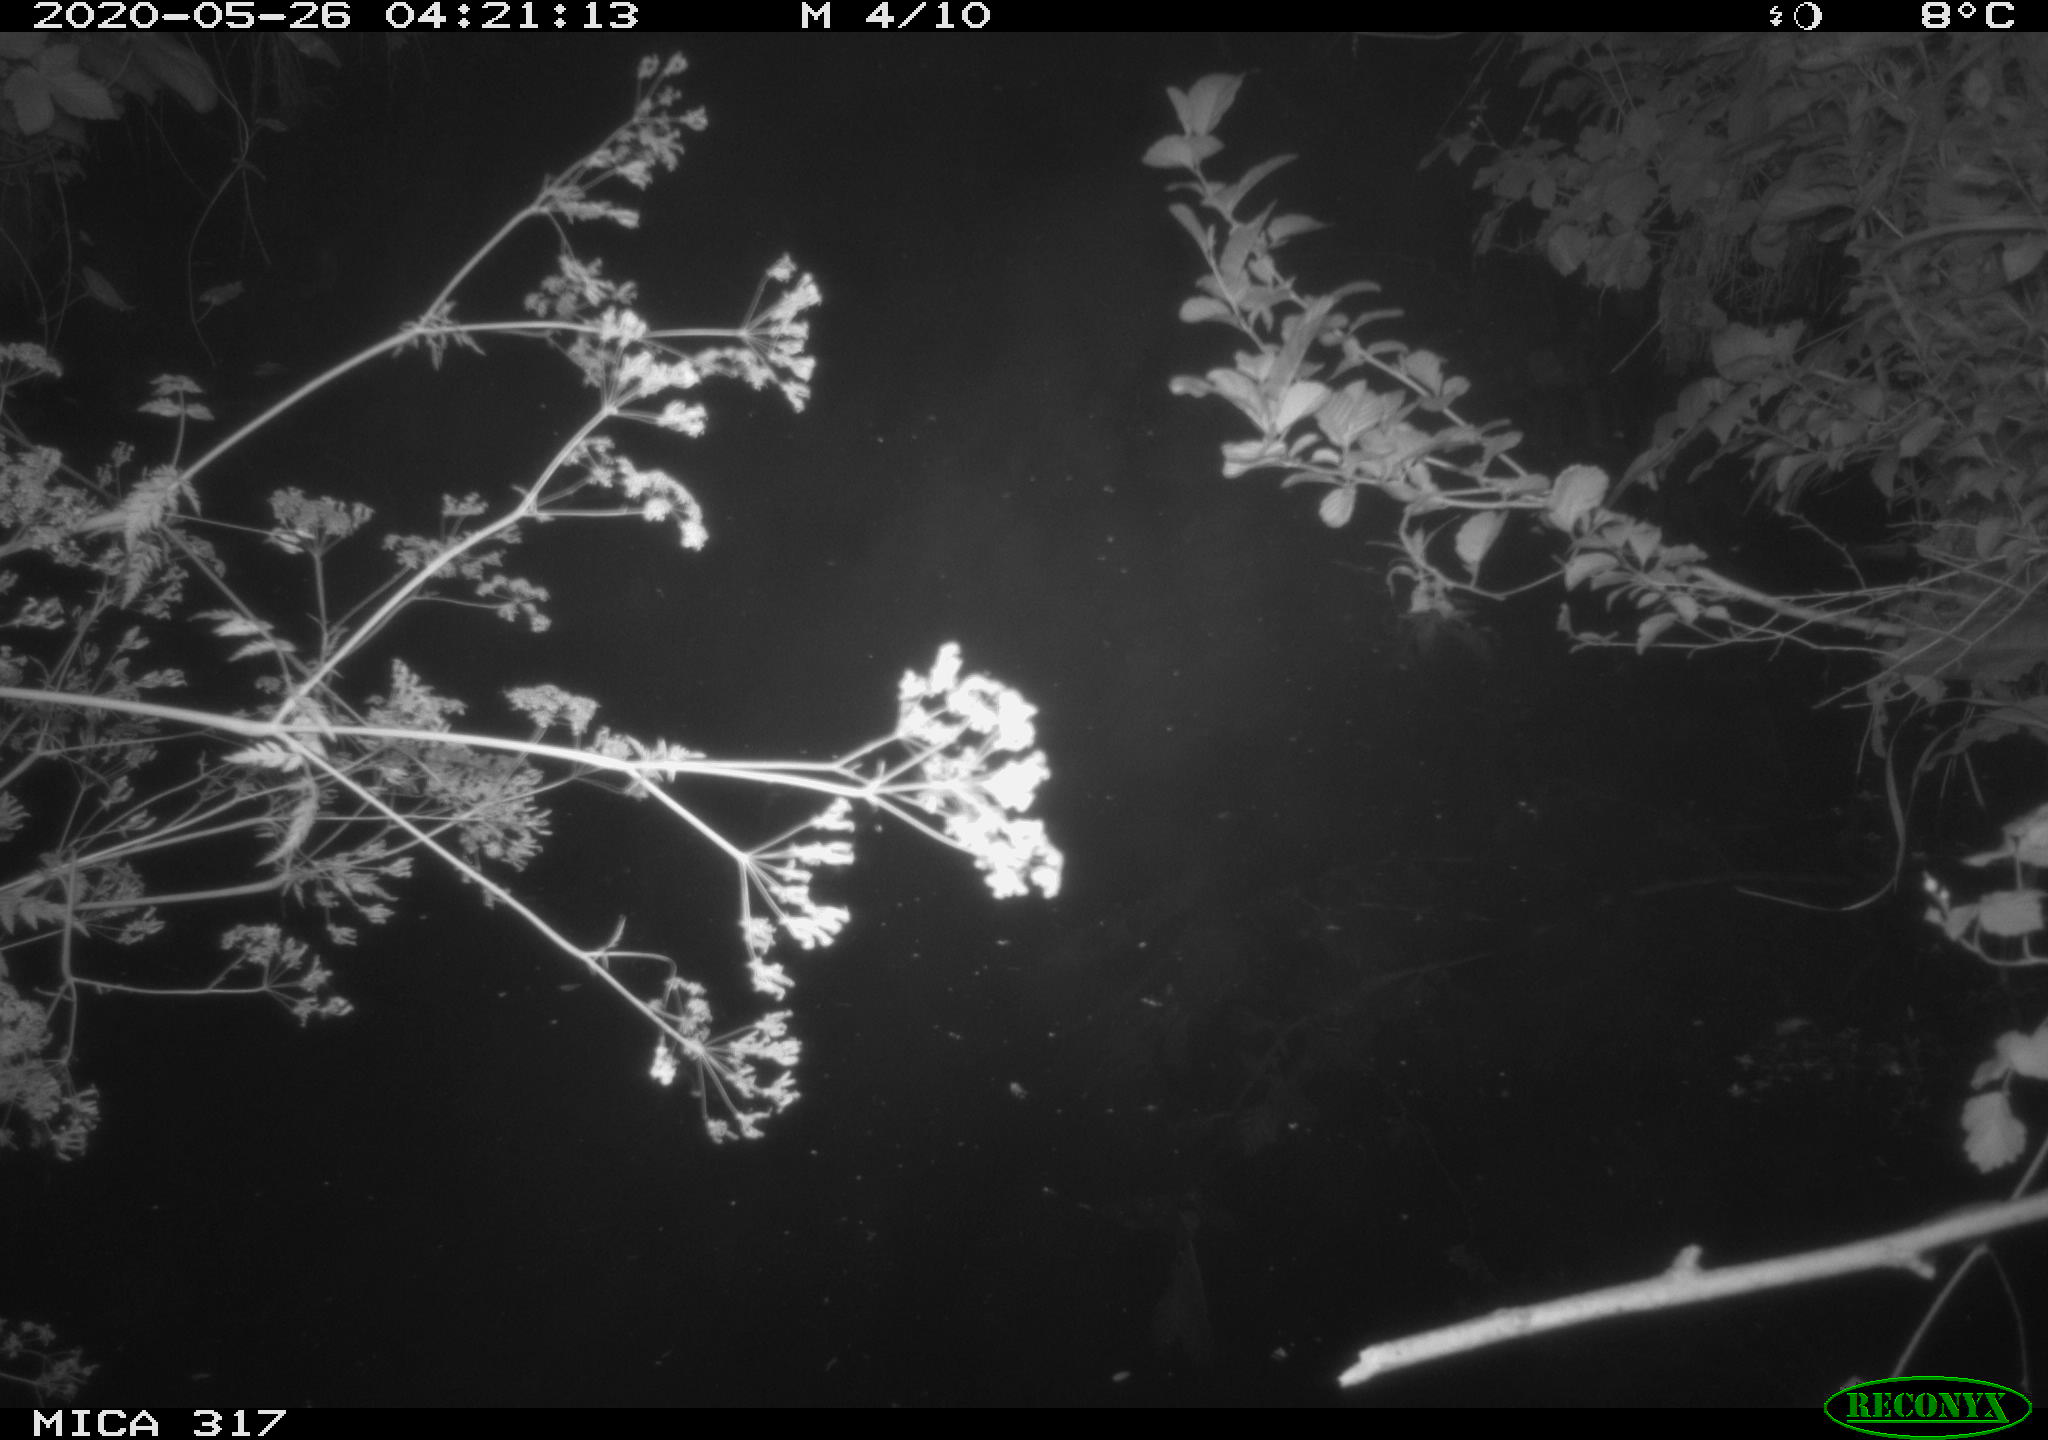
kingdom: Animalia
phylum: Chordata
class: Aves
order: Anseriformes
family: Anatidae
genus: Anas
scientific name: Anas platyrhynchos
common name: Mallard
